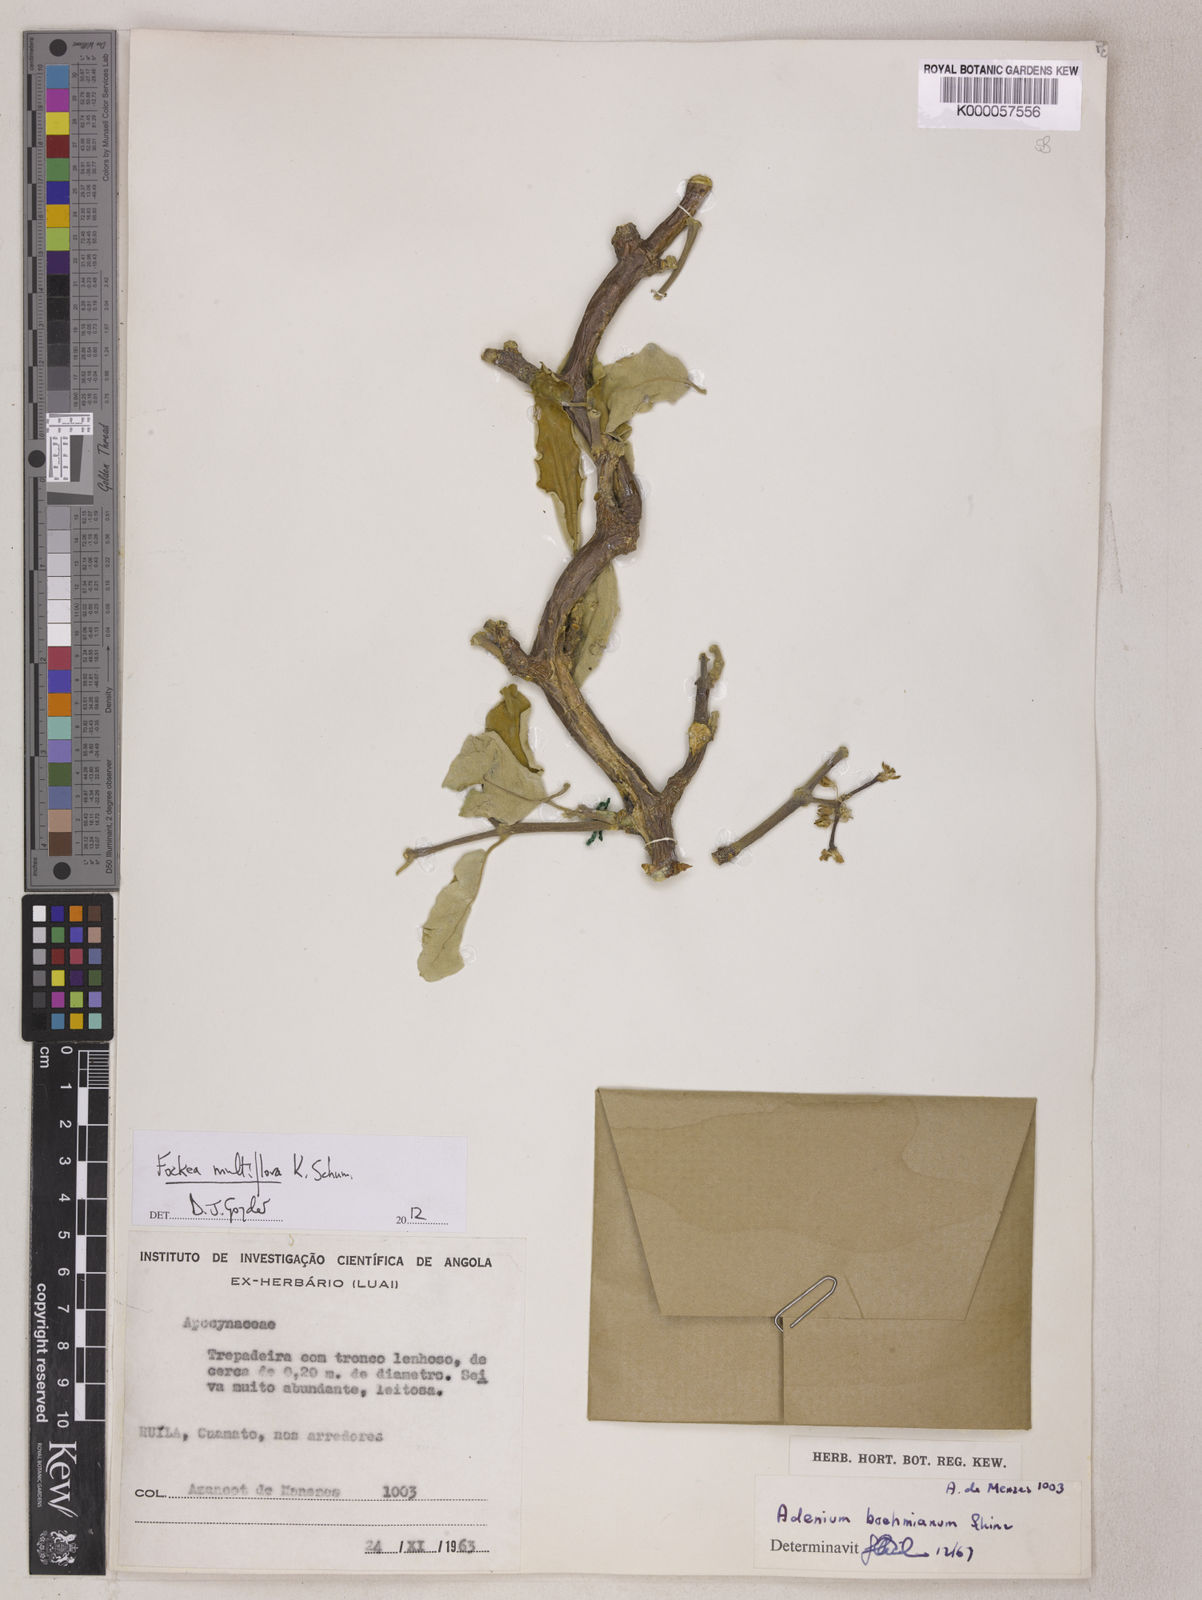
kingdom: Plantae
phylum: Tracheophyta
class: Magnoliopsida
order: Gentianales
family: Apocynaceae
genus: Fockea
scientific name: Fockea multiflora
